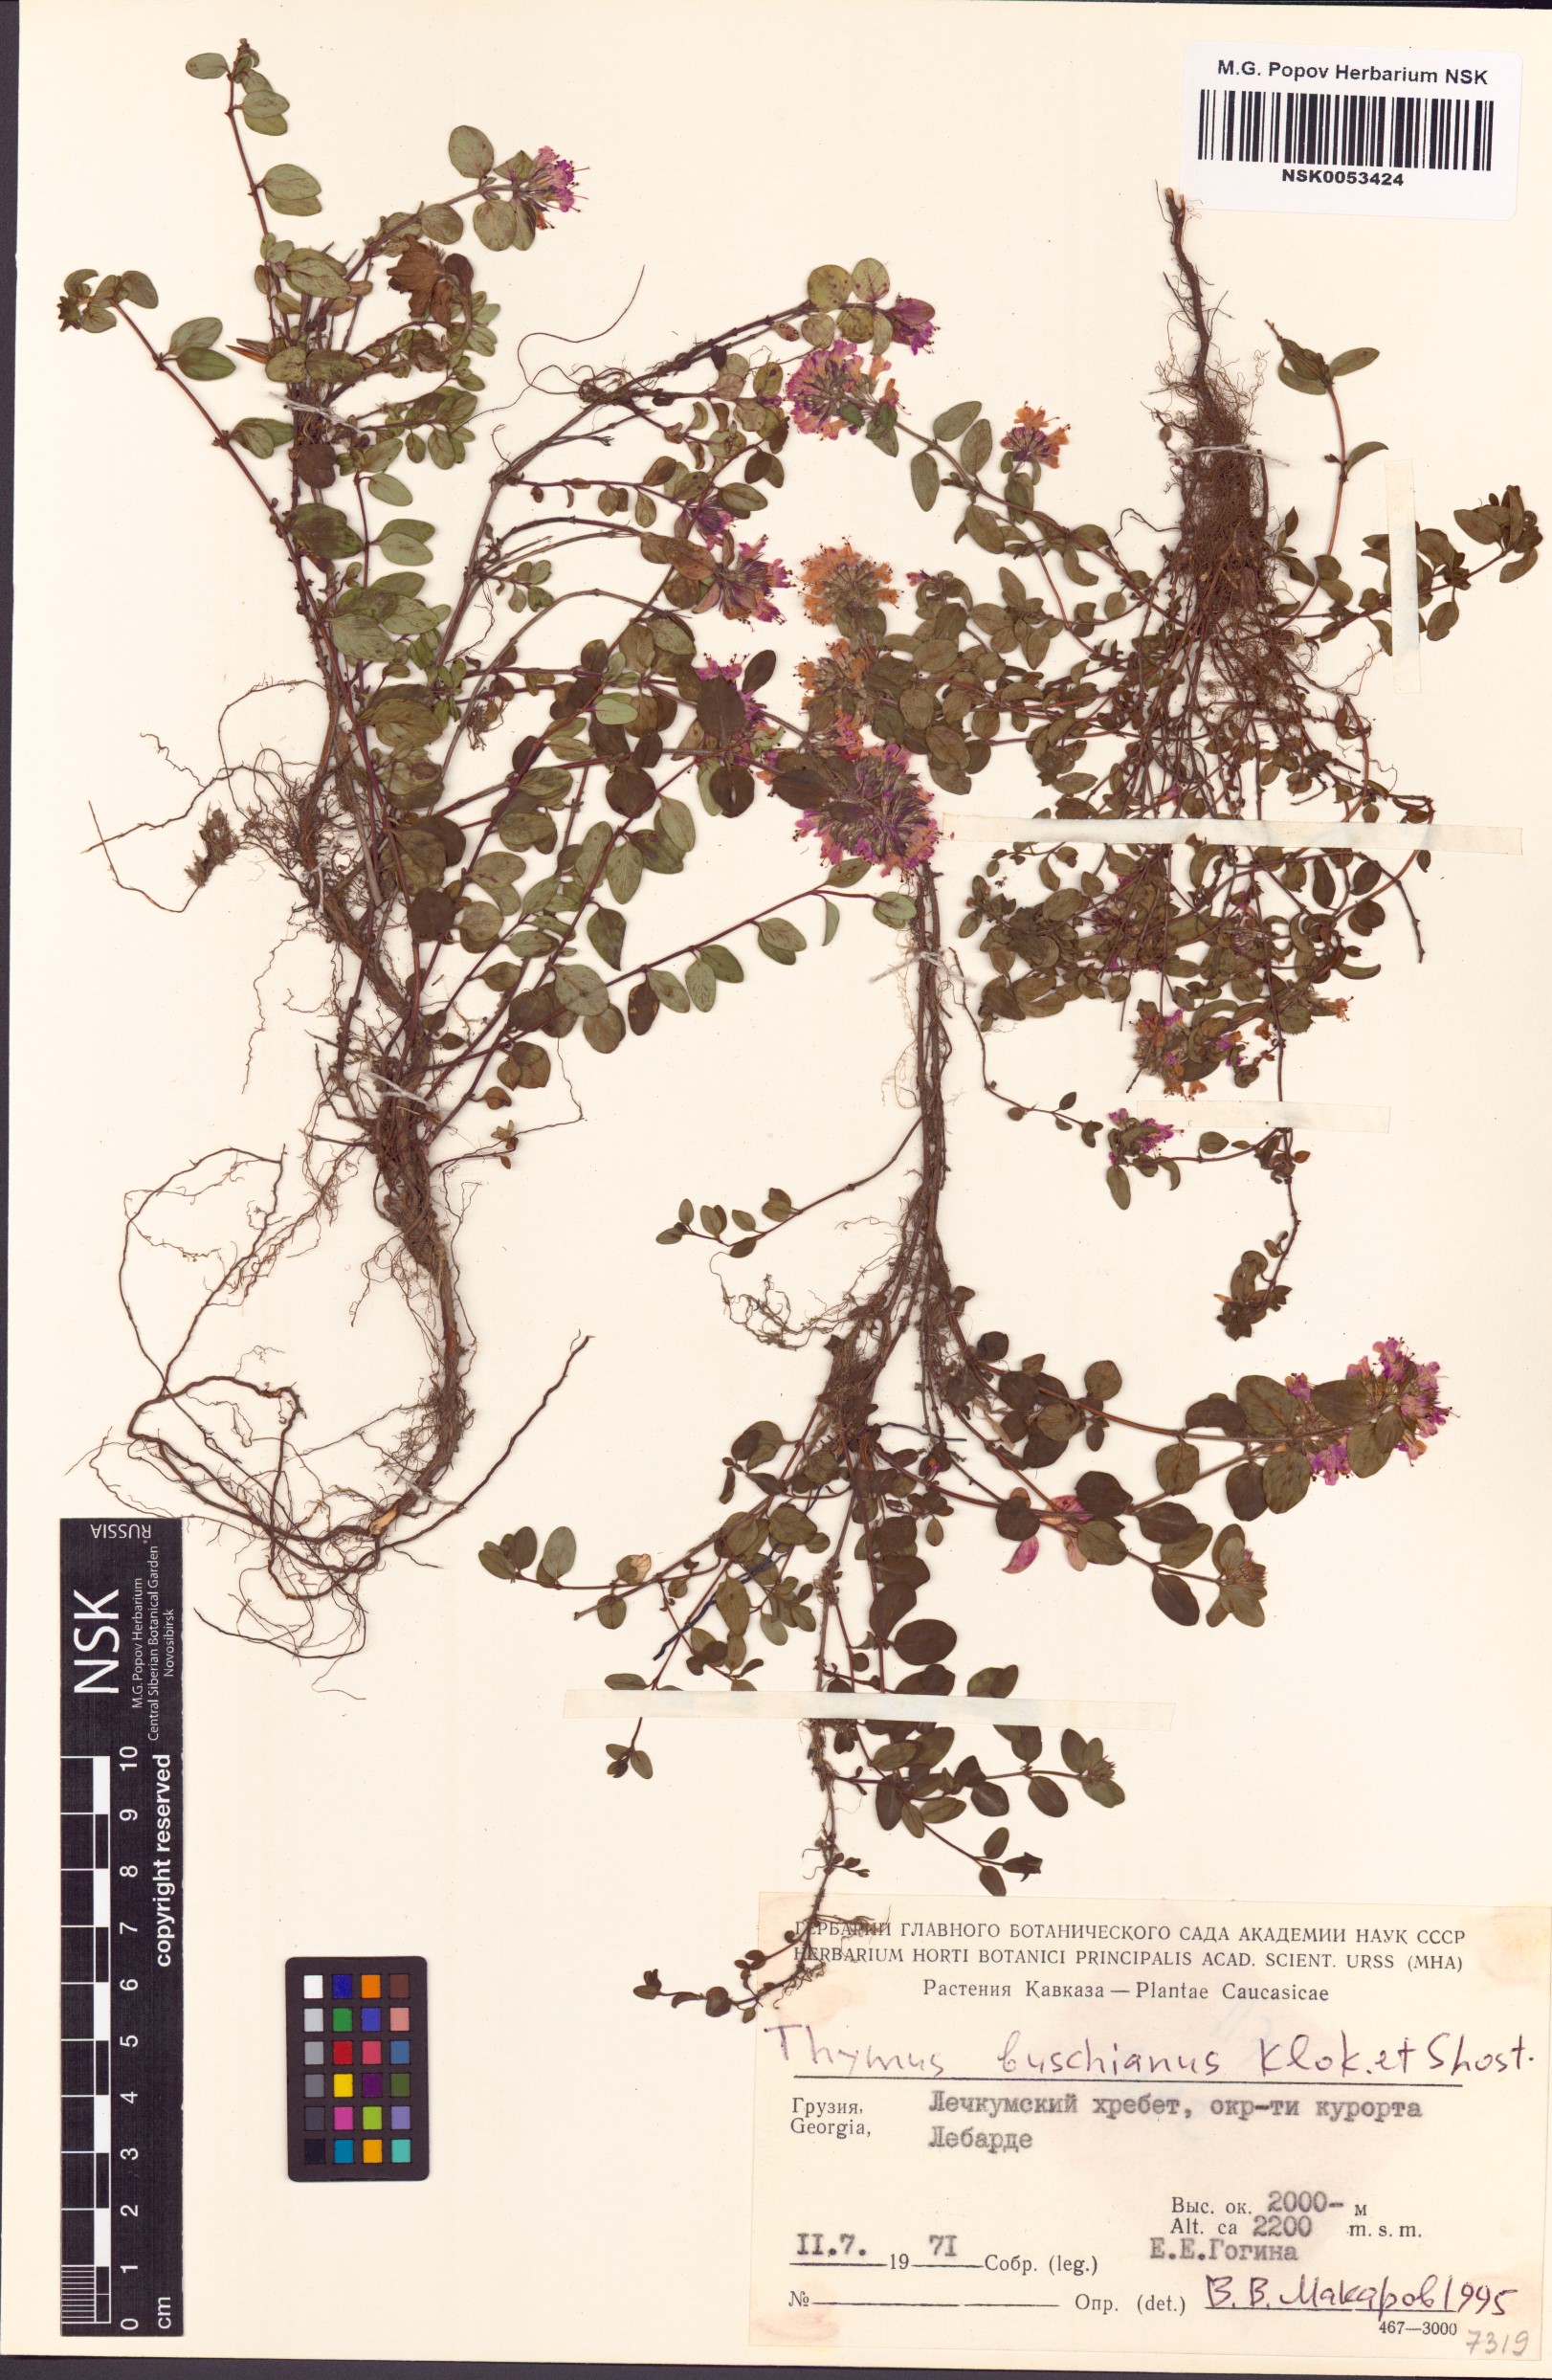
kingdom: Plantae
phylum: Tracheophyta
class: Magnoliopsida
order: Lamiales
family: Lamiaceae
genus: Thymus
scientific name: Thymus nummularius
